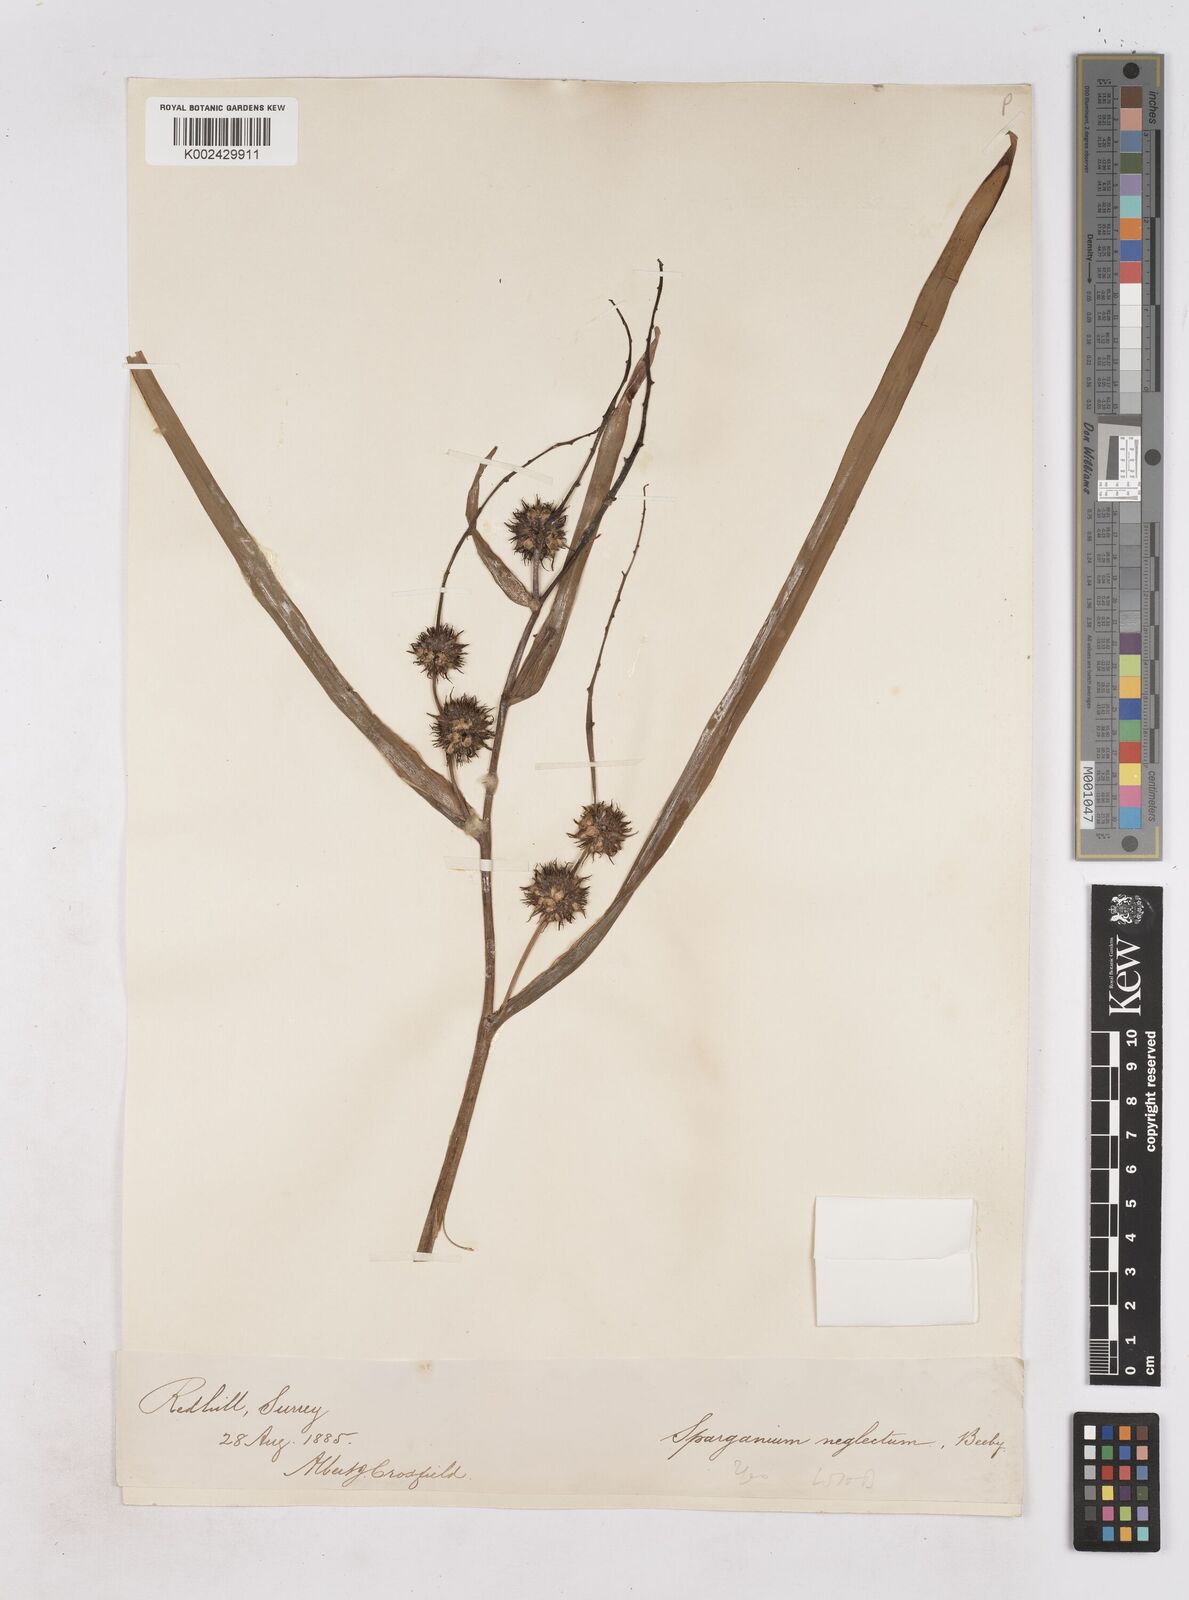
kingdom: Plantae
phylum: Tracheophyta
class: Liliopsida
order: Poales
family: Typhaceae
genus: Sparganium
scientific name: Sparganium erectum
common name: Branched bur-reed
